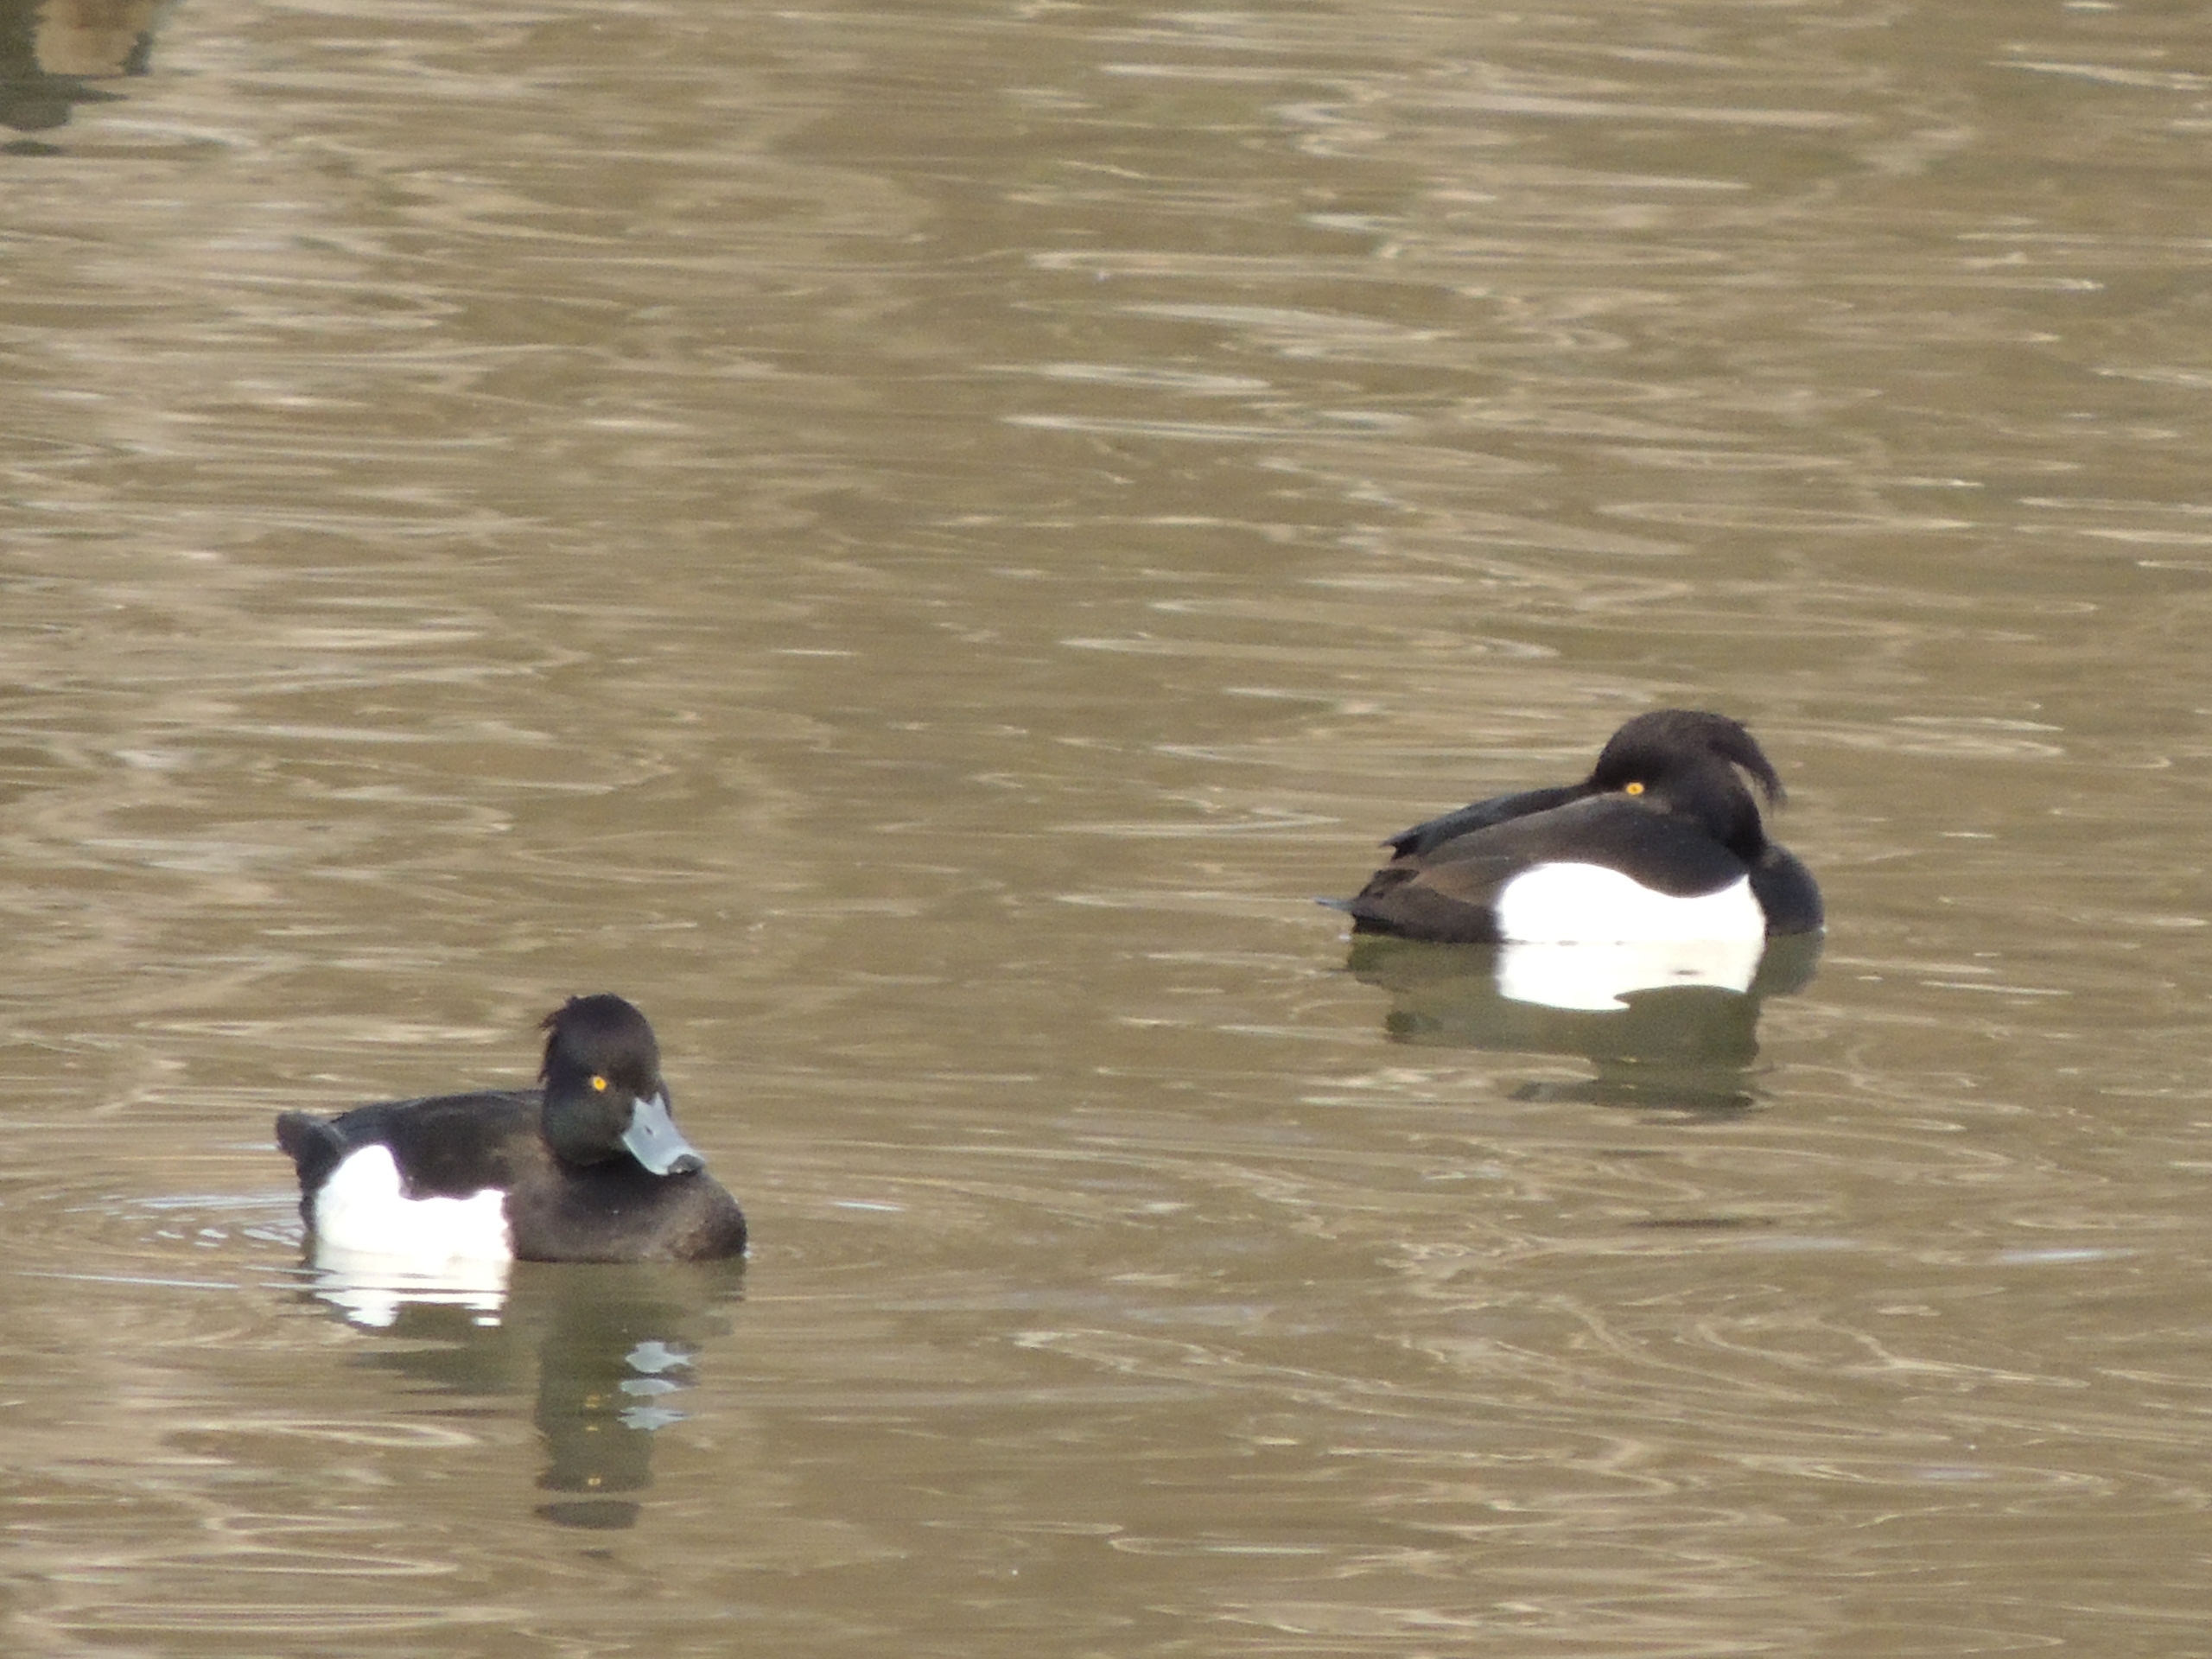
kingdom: Animalia
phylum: Chordata
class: Aves
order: Anseriformes
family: Anatidae
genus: Aythya
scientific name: Aythya fuligula
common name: Troldand
